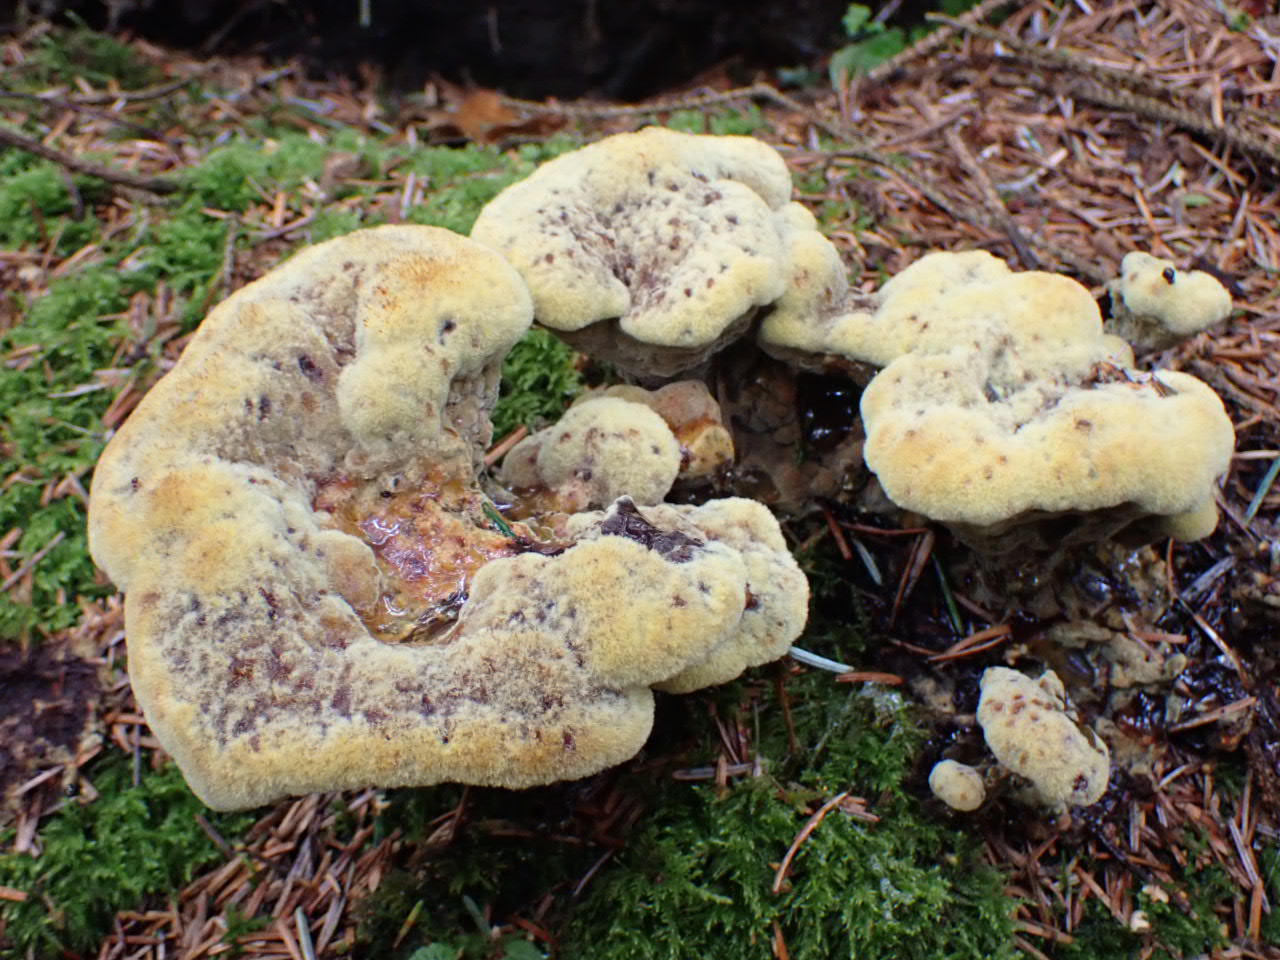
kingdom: Fungi
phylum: Basidiomycota
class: Agaricomycetes
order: Polyporales
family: Laetiporaceae
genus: Phaeolus
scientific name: Phaeolus schweinitzii
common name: brunporesvamp
